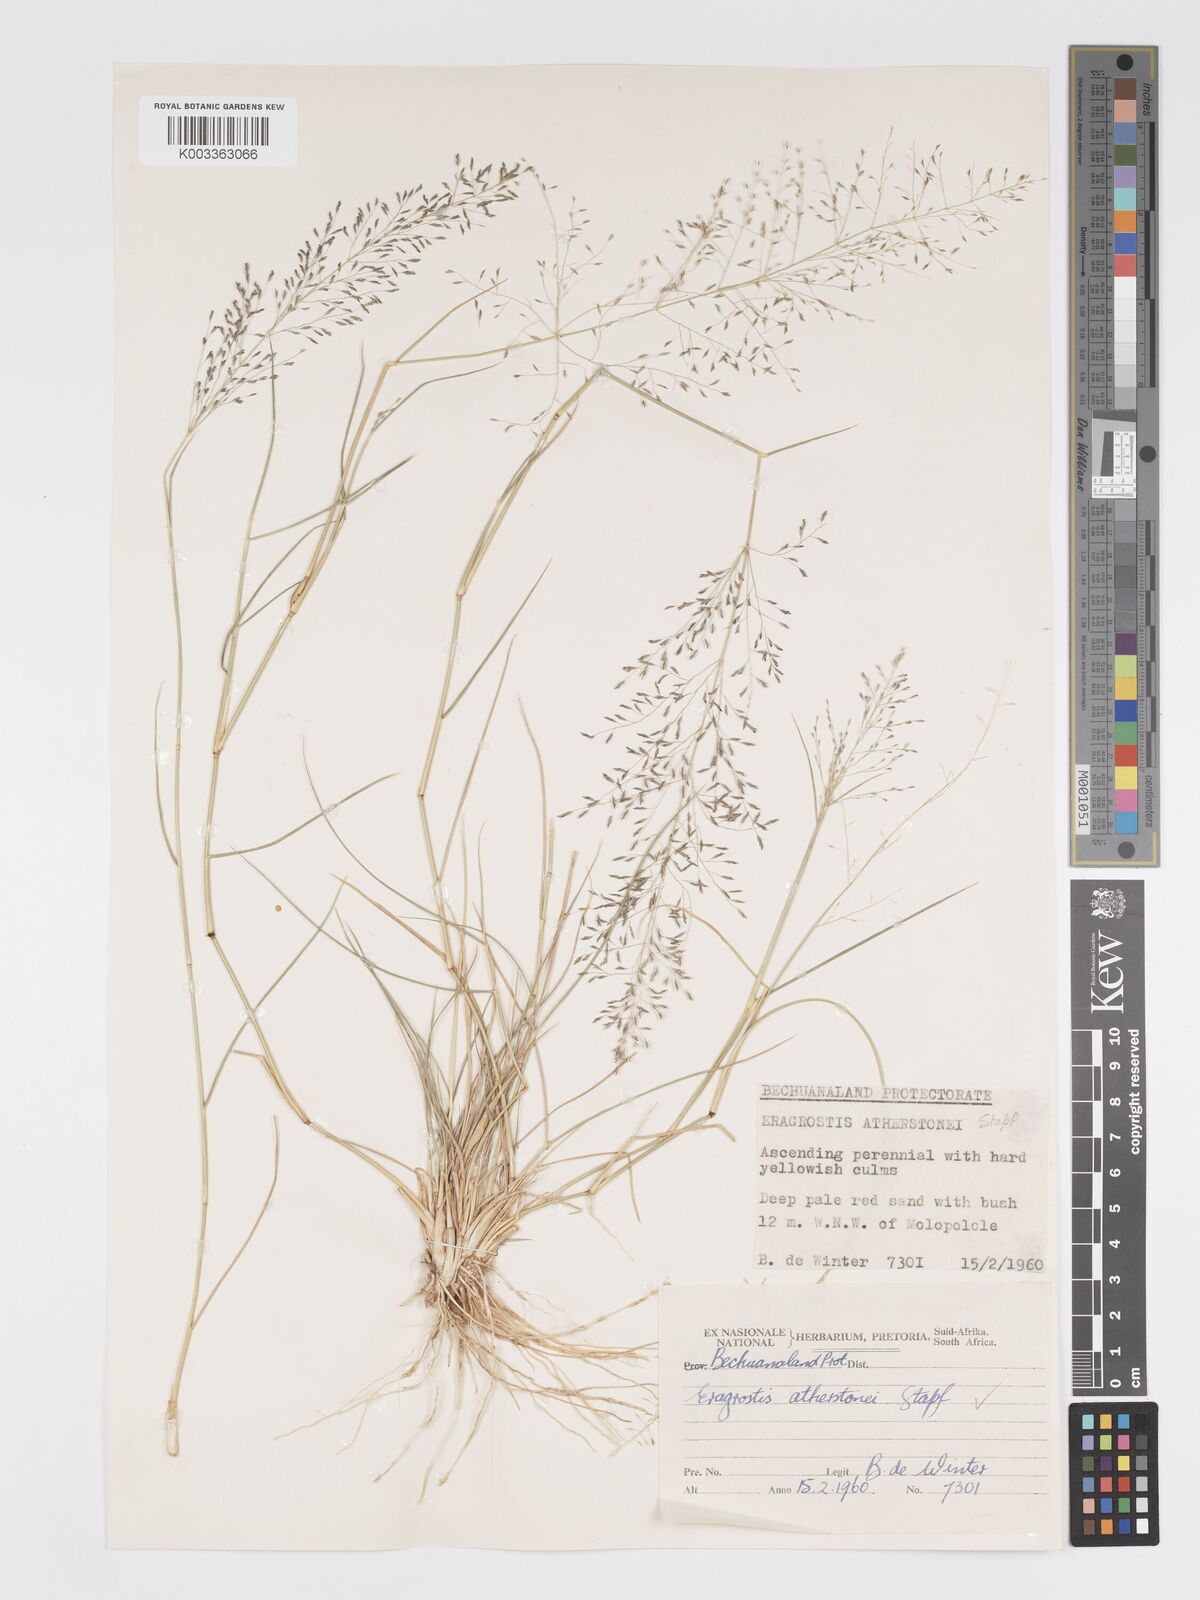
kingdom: Plantae
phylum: Tracheophyta
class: Liliopsida
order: Poales
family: Poaceae
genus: Eragrostis
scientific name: Eragrostis cylindriflora
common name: Cylinderflower lovegrass
